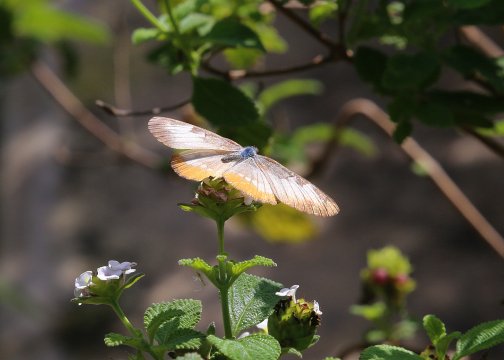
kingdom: Animalia
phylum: Arthropoda
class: Insecta
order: Lepidoptera
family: Nymphalidae
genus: Mestra
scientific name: Mestra amymone
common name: Common Mestra
